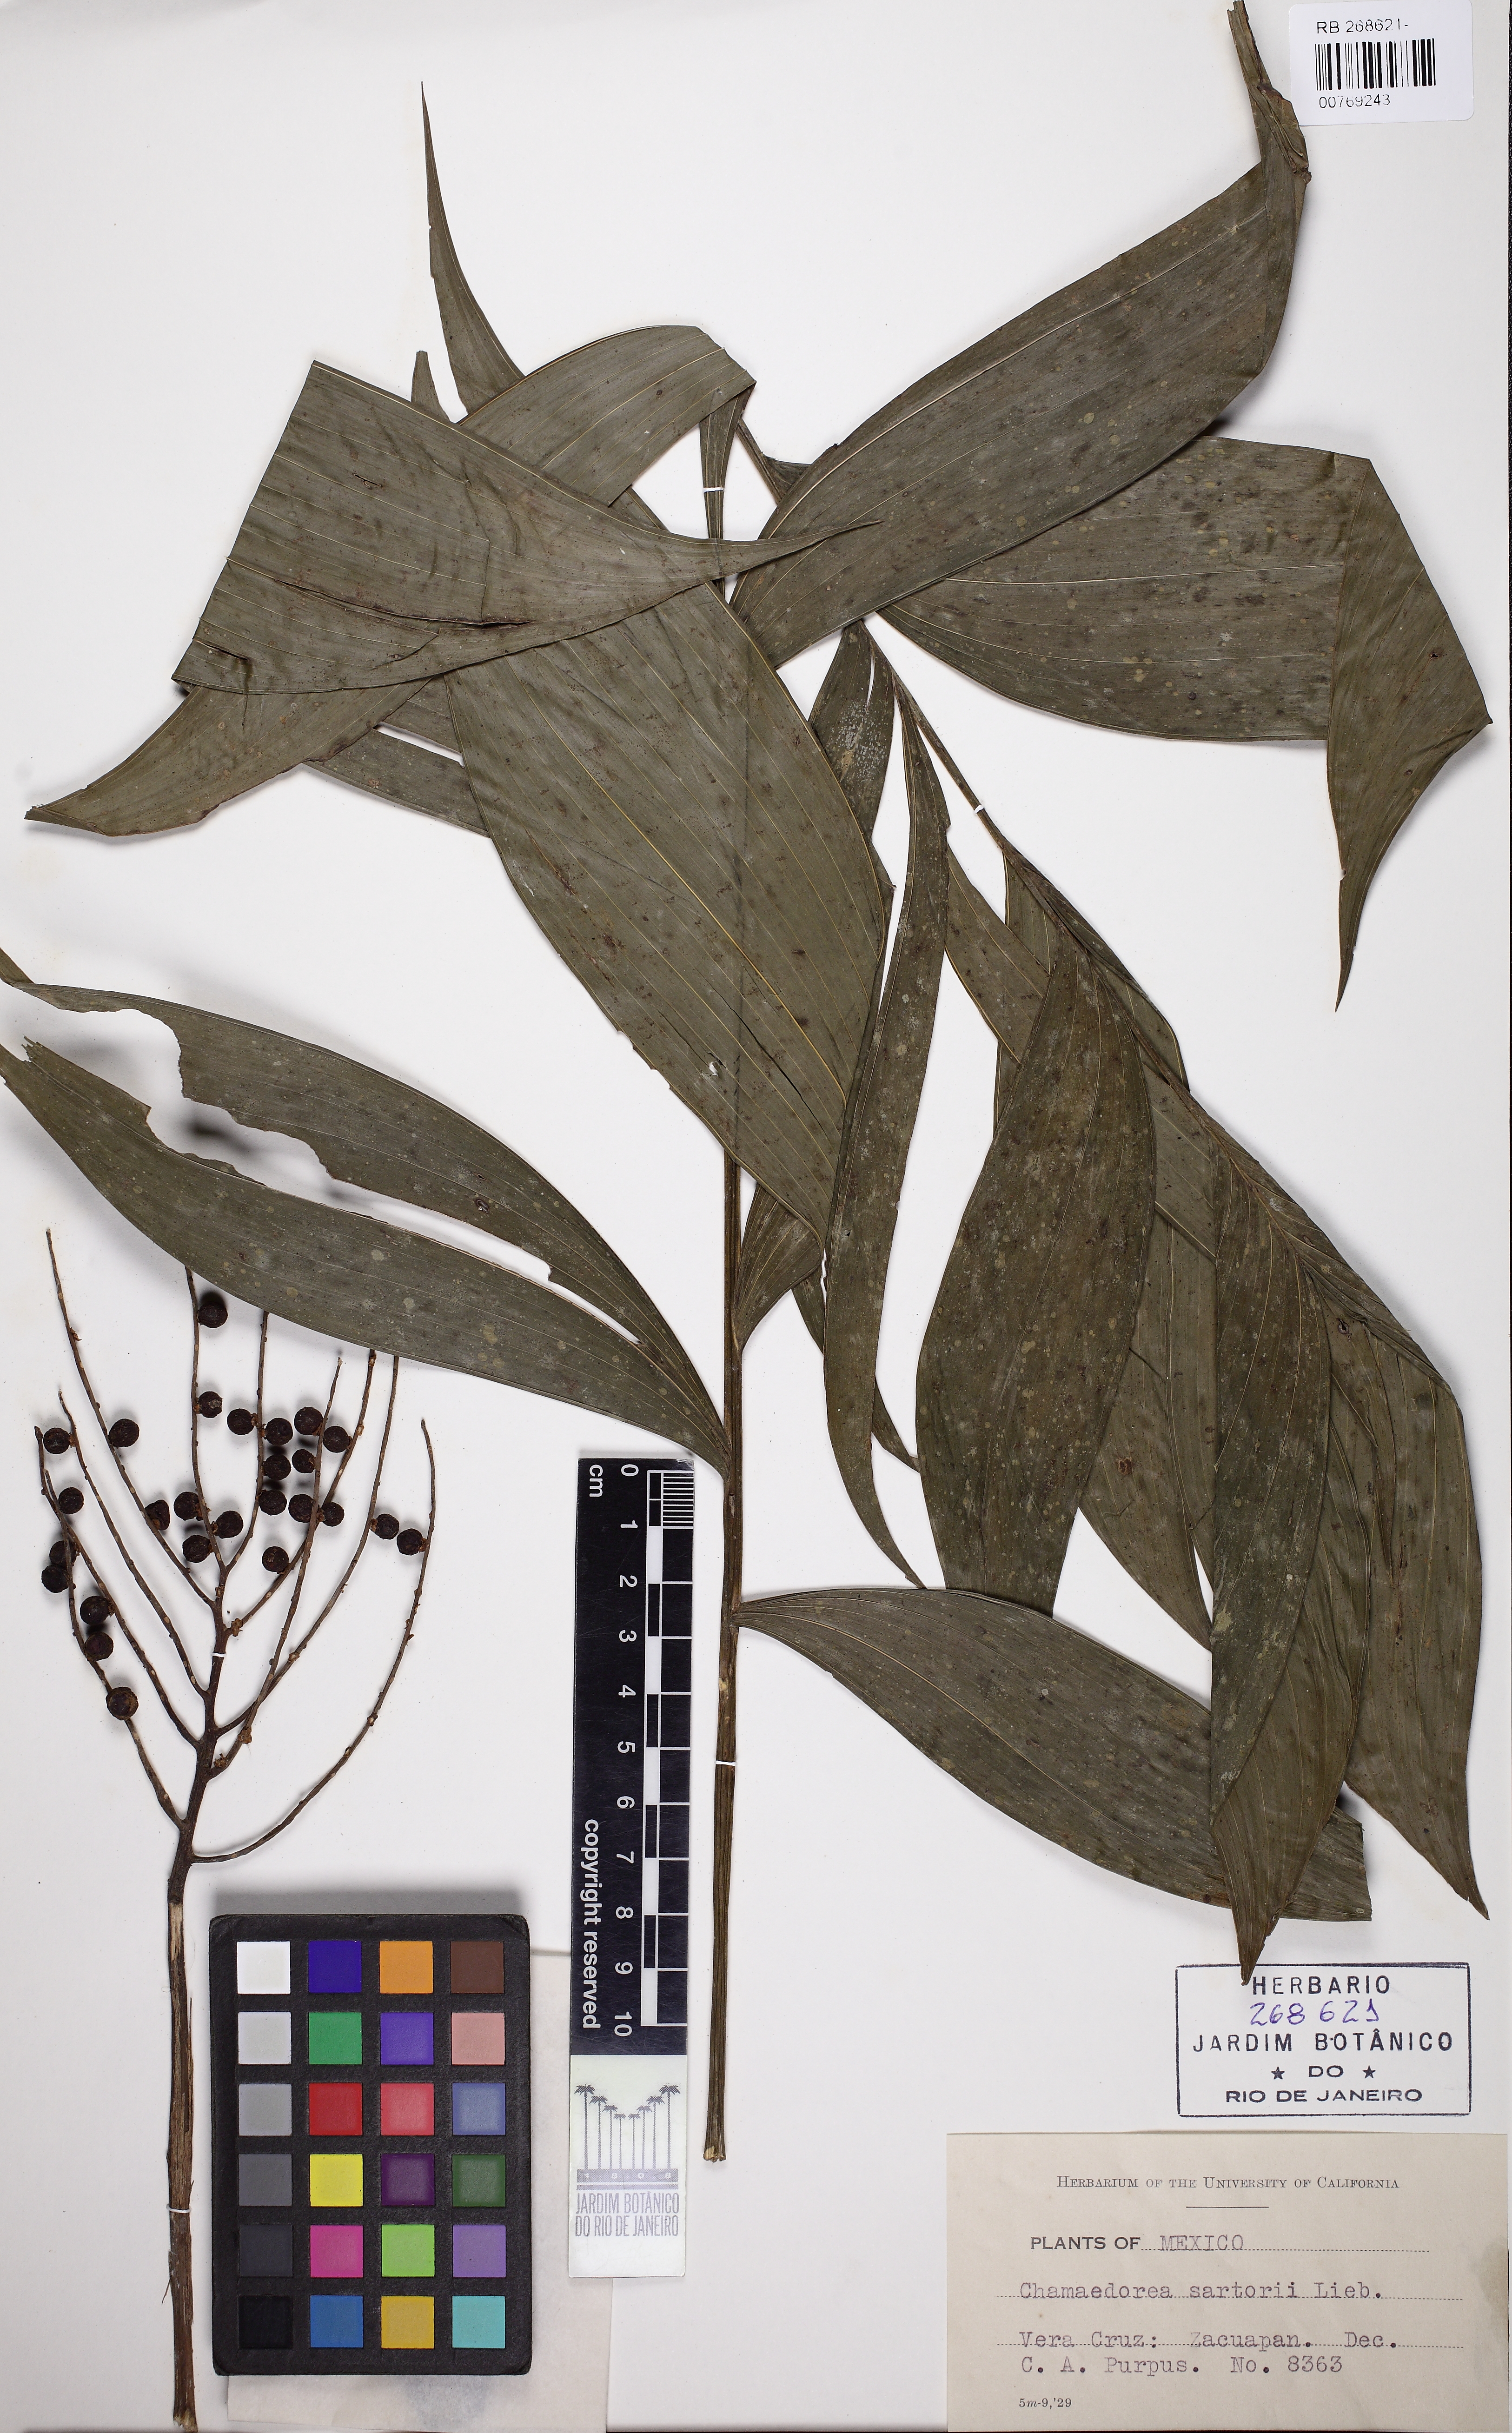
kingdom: Plantae
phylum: Tracheophyta
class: Liliopsida
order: Arecales
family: Arecaceae
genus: Chamaedorea
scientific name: Chamaedorea sartorii
